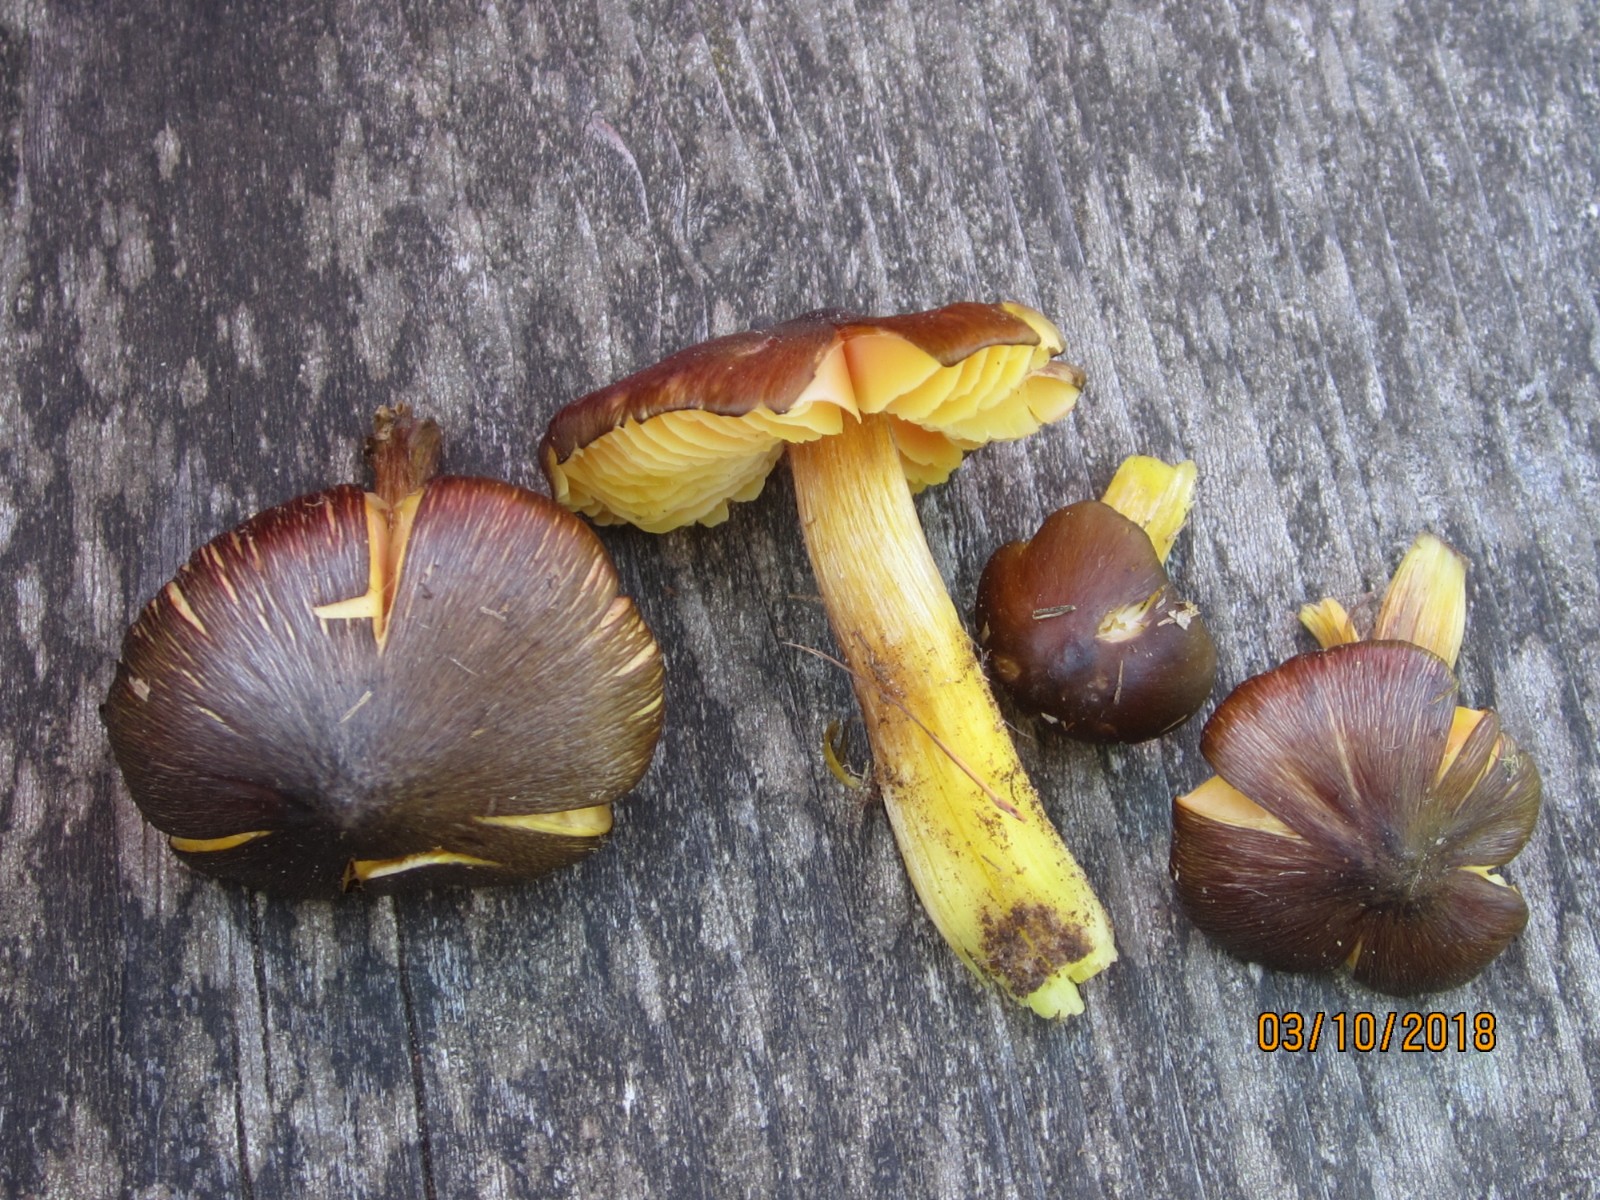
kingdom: Fungi
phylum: Basidiomycota
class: Agaricomycetes
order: Agaricales
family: Hygrophoraceae
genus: Hygrocybe
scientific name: Hygrocybe spadicea
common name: daddelbrun vokshat
